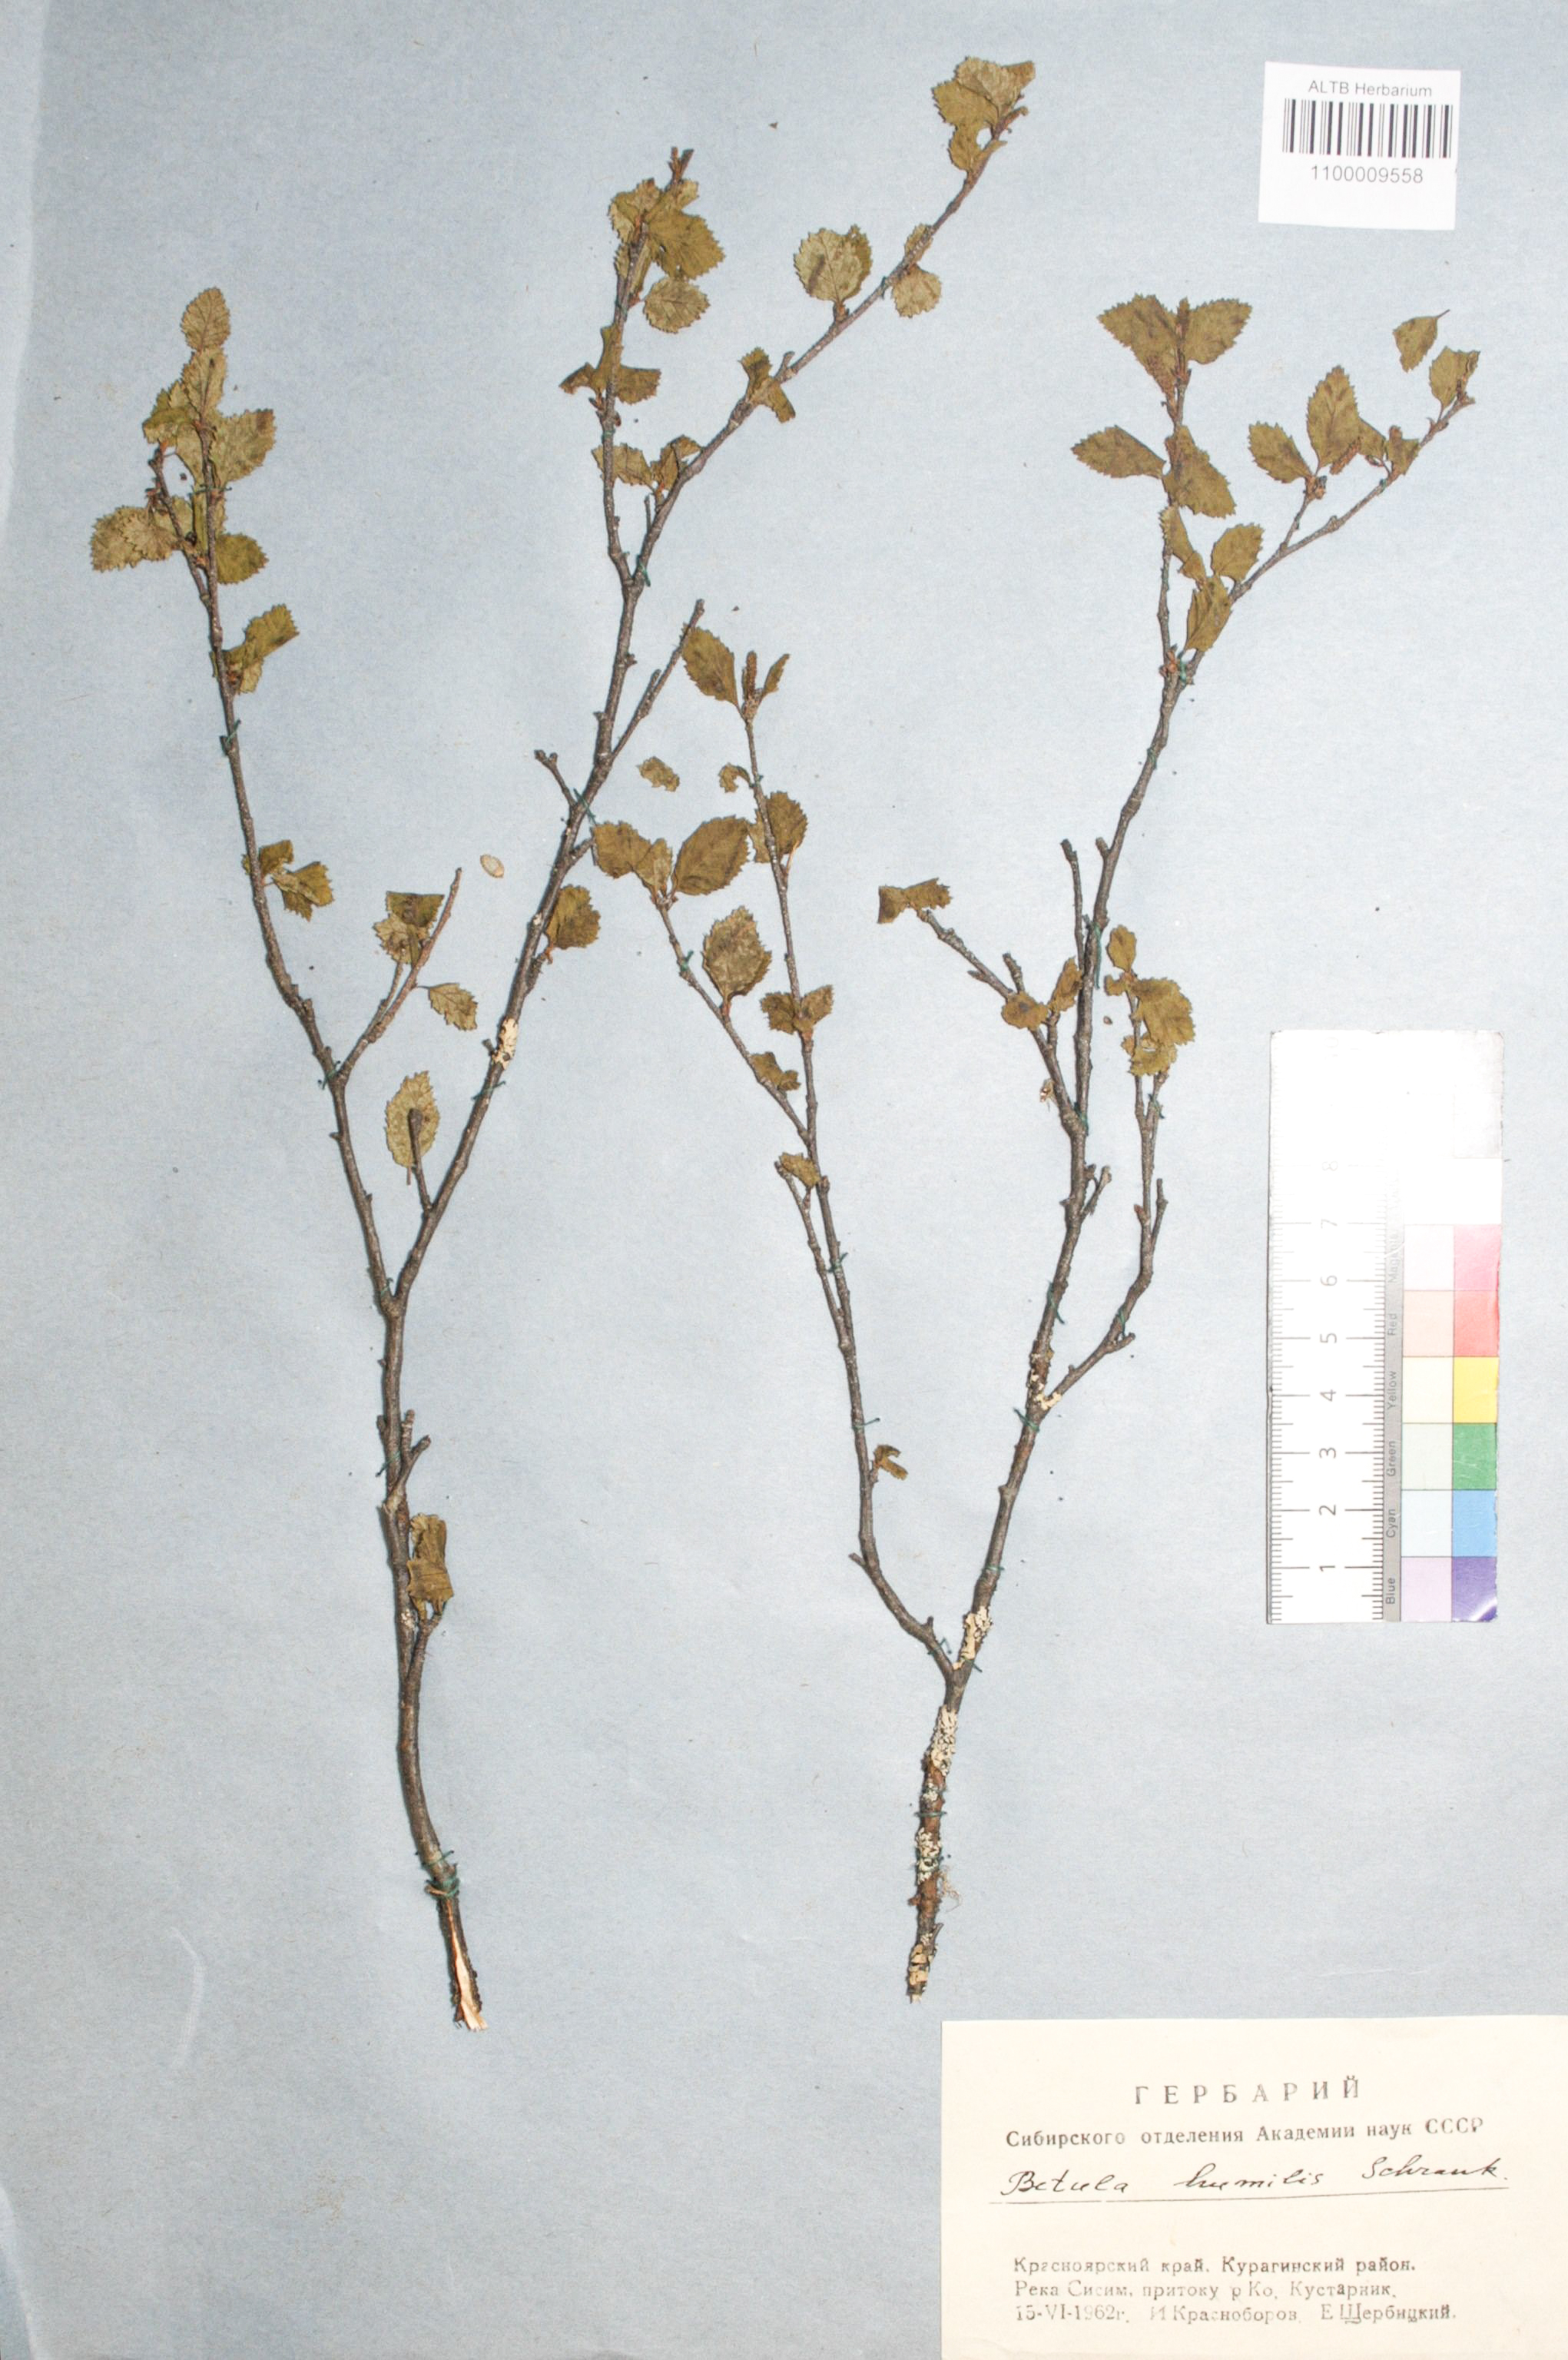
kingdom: Plantae
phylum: Tracheophyta
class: Magnoliopsida
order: Fagales
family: Betulaceae
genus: Betula
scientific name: Betula humilis
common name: Shrubby birch
